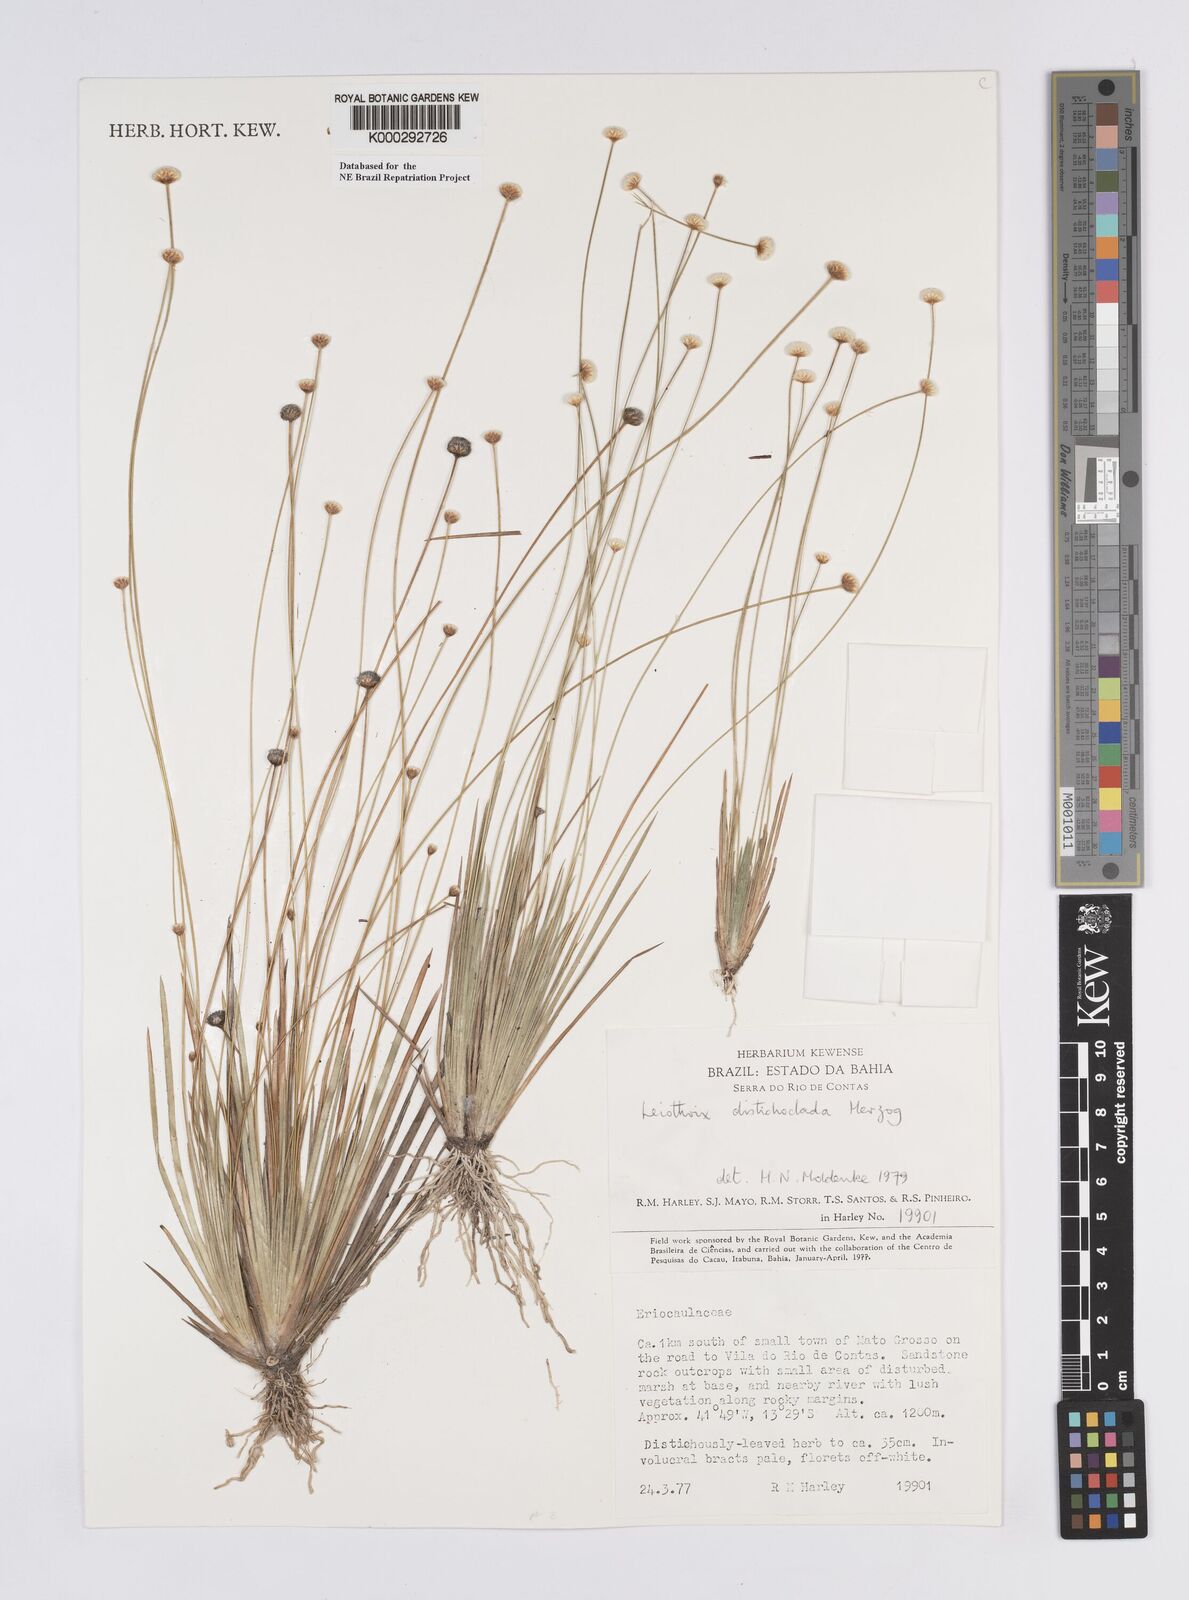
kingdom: Plantae
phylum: Tracheophyta
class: Liliopsida
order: Poales
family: Eriocaulaceae
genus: Leiothrix
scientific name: Leiothrix distichoclada
